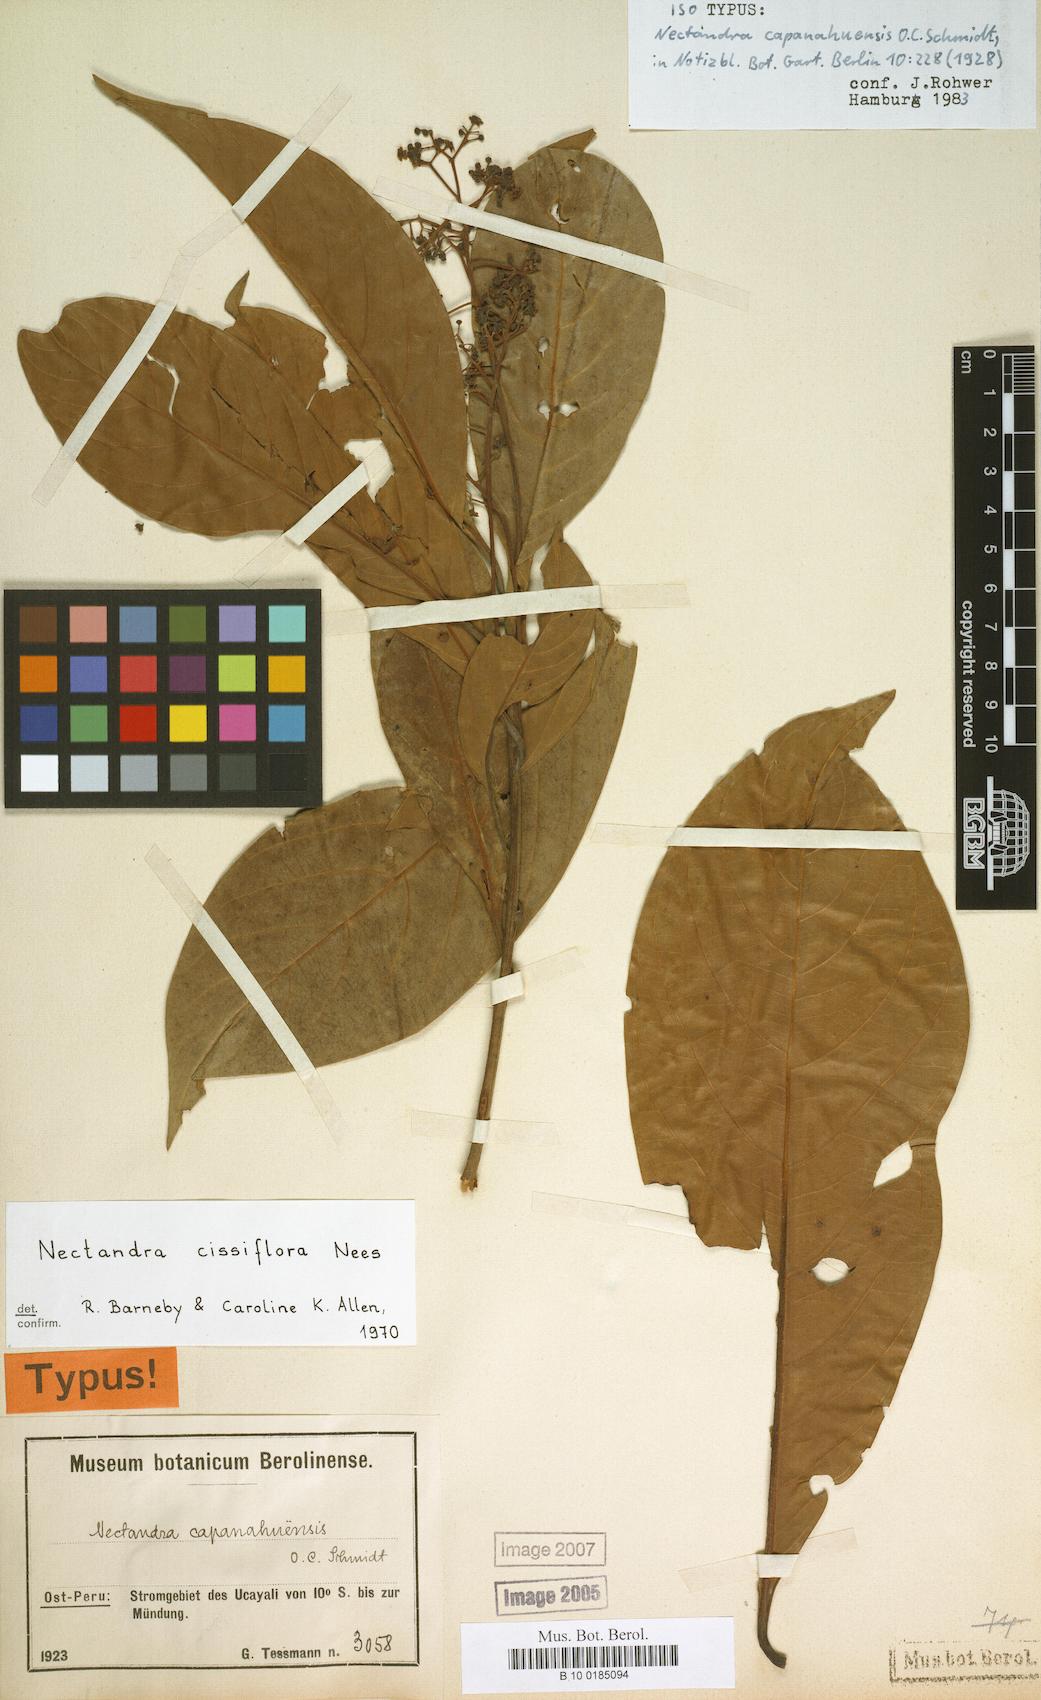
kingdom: Plantae
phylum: Tracheophyta
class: Magnoliopsida
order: Laurales
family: Lauraceae
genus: Nectandra
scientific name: Nectandra cissiflora
